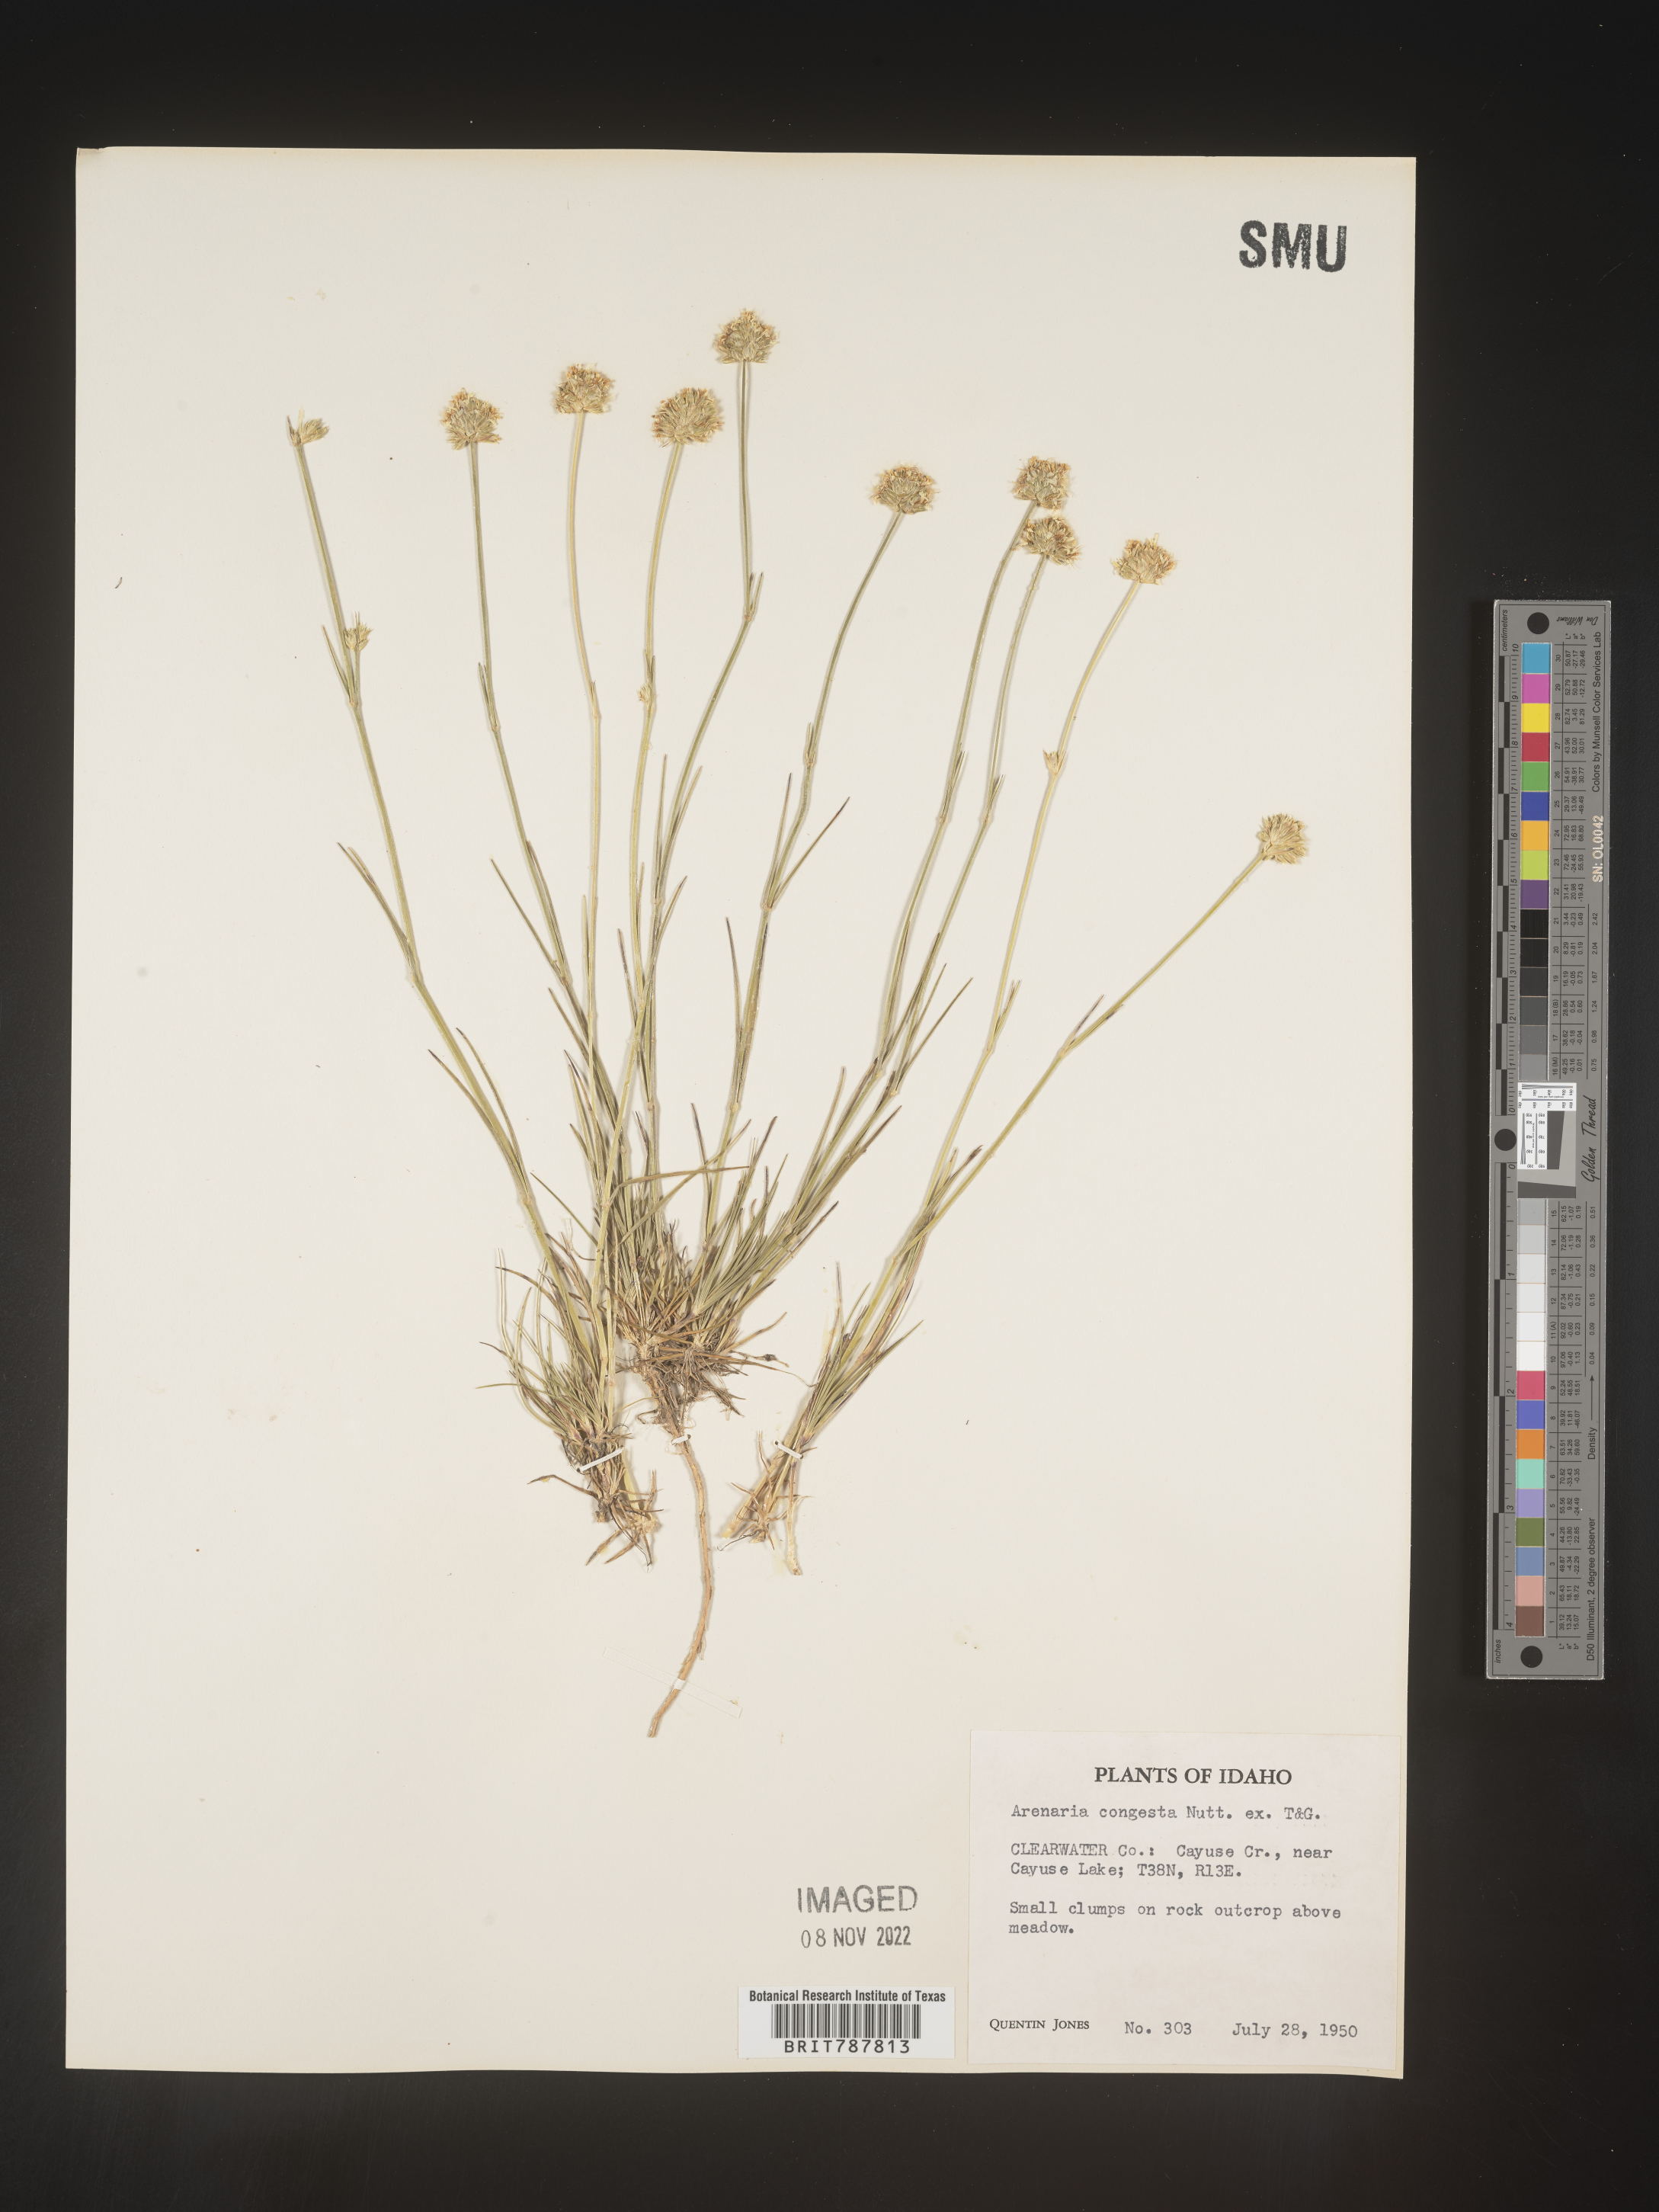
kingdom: Plantae
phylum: Tracheophyta
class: Magnoliopsida
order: Caryophyllales
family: Caryophyllaceae
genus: Eremogone
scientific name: Eremogone congesta
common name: Ballhead sandwort
